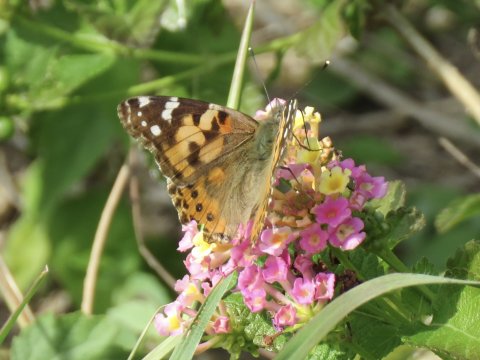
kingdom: Animalia
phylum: Arthropoda
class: Insecta
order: Lepidoptera
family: Nymphalidae
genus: Vanessa
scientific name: Vanessa cardui
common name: Painted Lady
